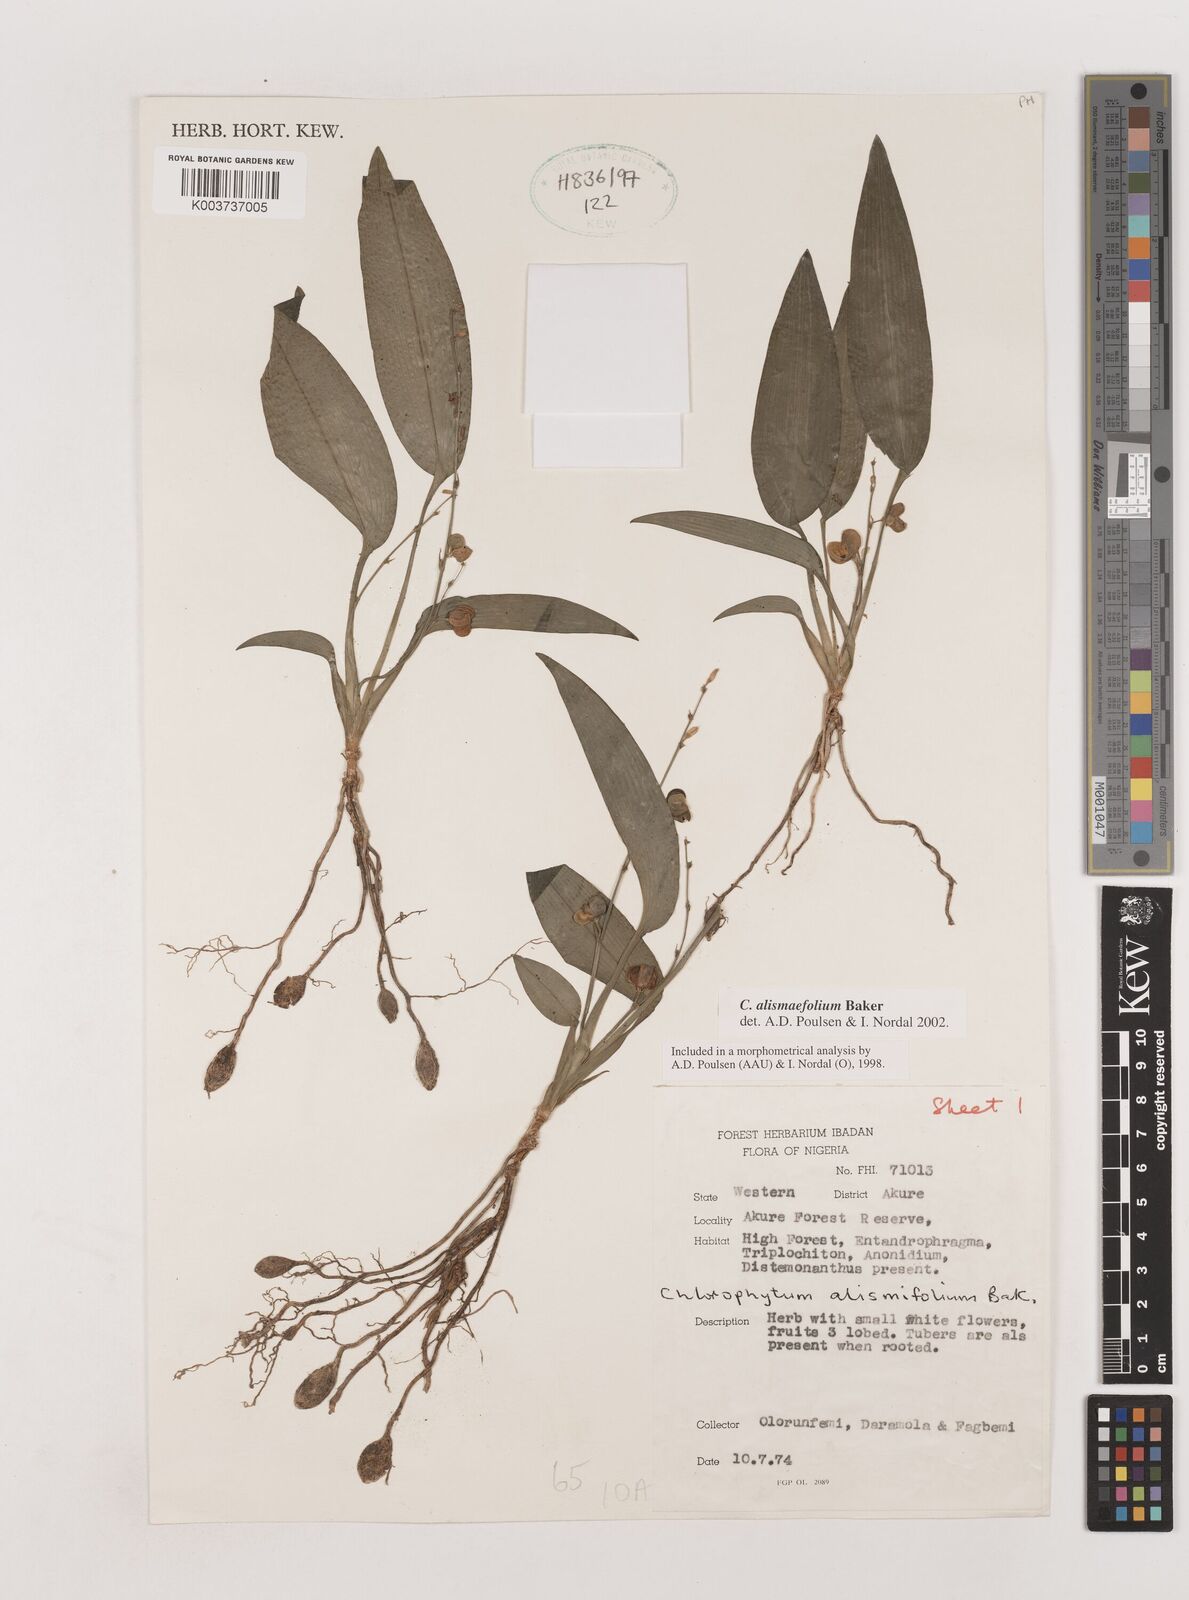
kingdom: Plantae
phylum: Tracheophyta
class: Liliopsida
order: Asparagales
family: Asparagaceae
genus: Chlorophytum
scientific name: Chlorophytum alismifolium
